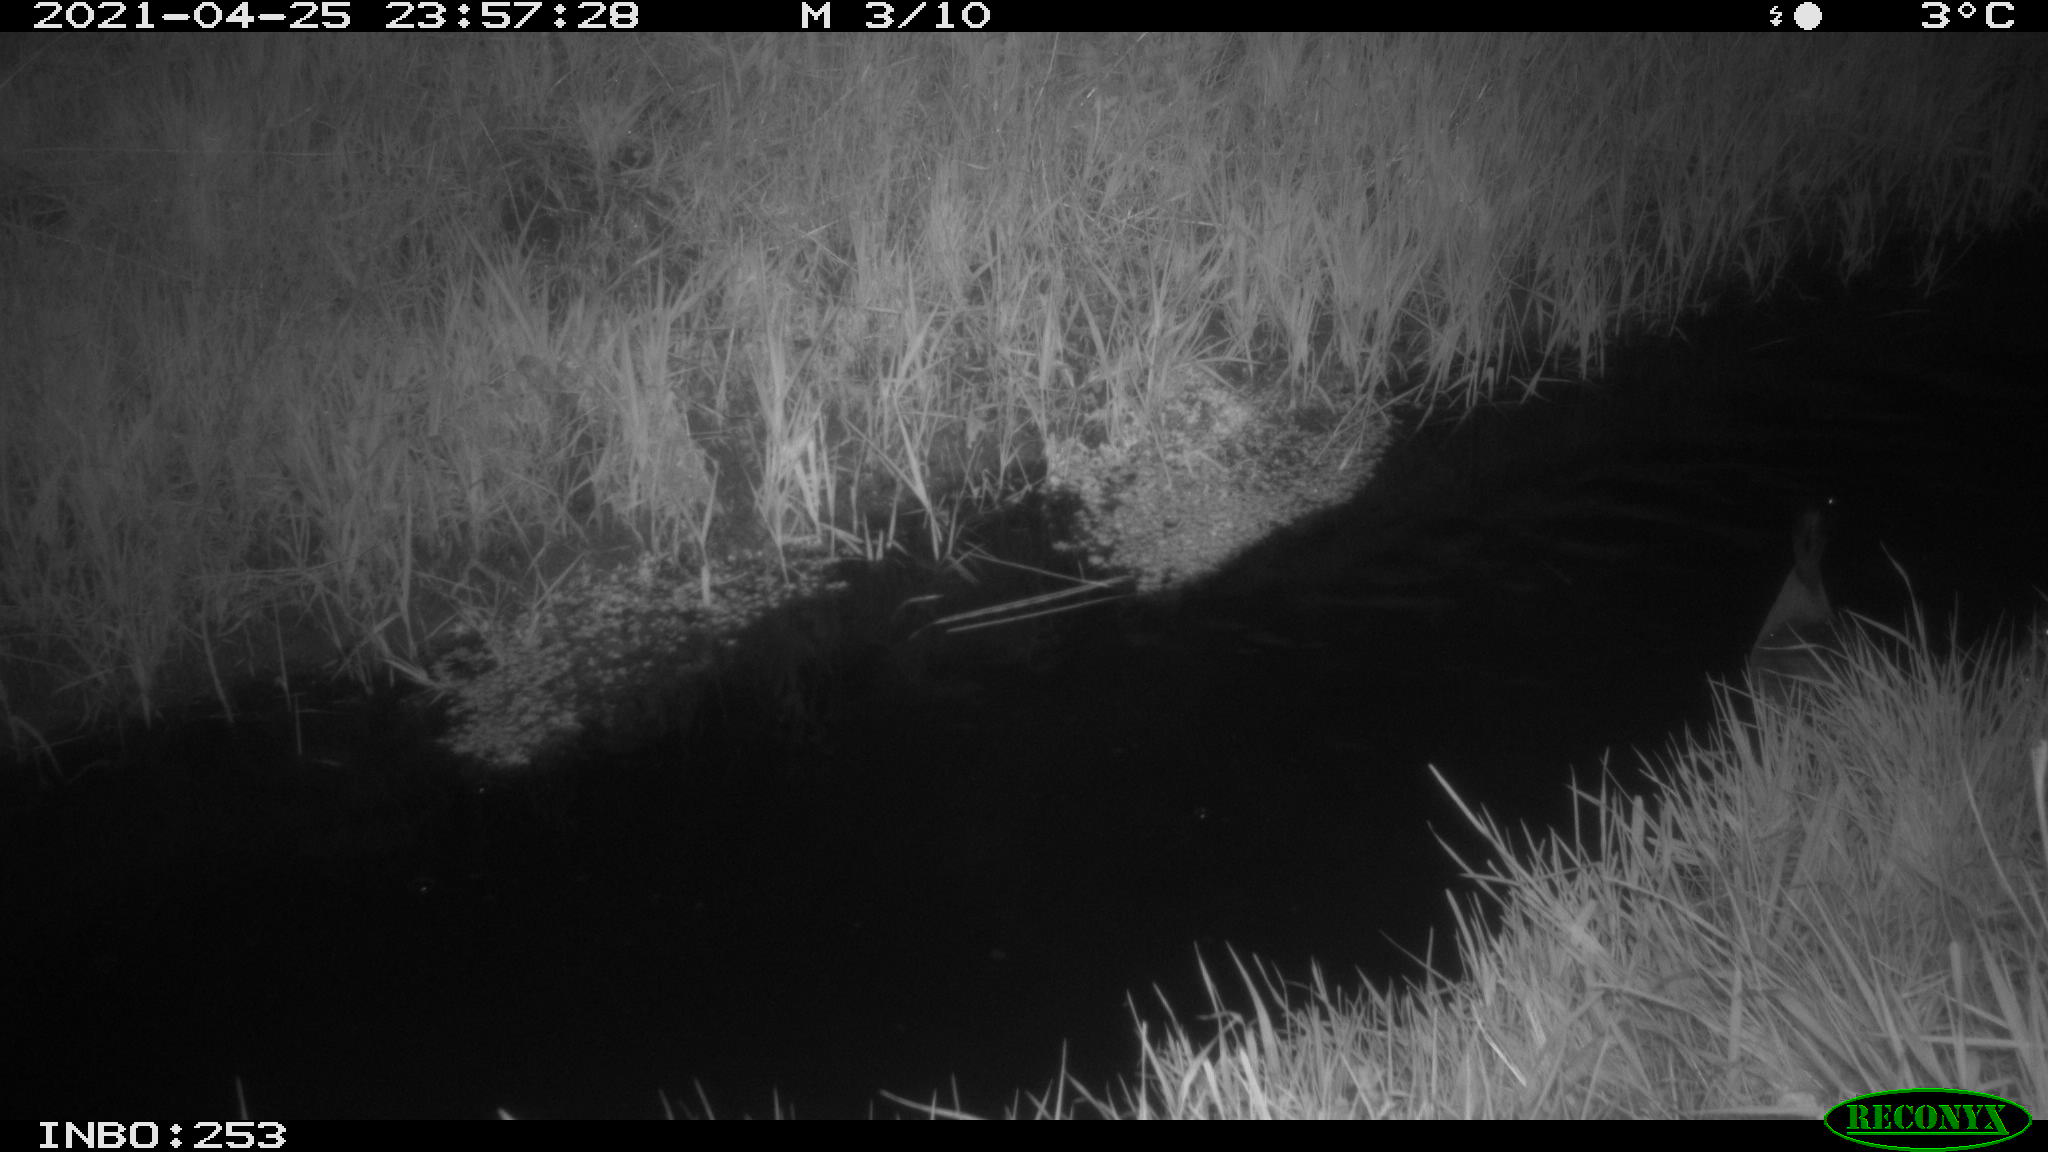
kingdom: Animalia
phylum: Chordata
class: Aves
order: Anseriformes
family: Anatidae
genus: Anas
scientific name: Anas platyrhynchos
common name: Mallard
